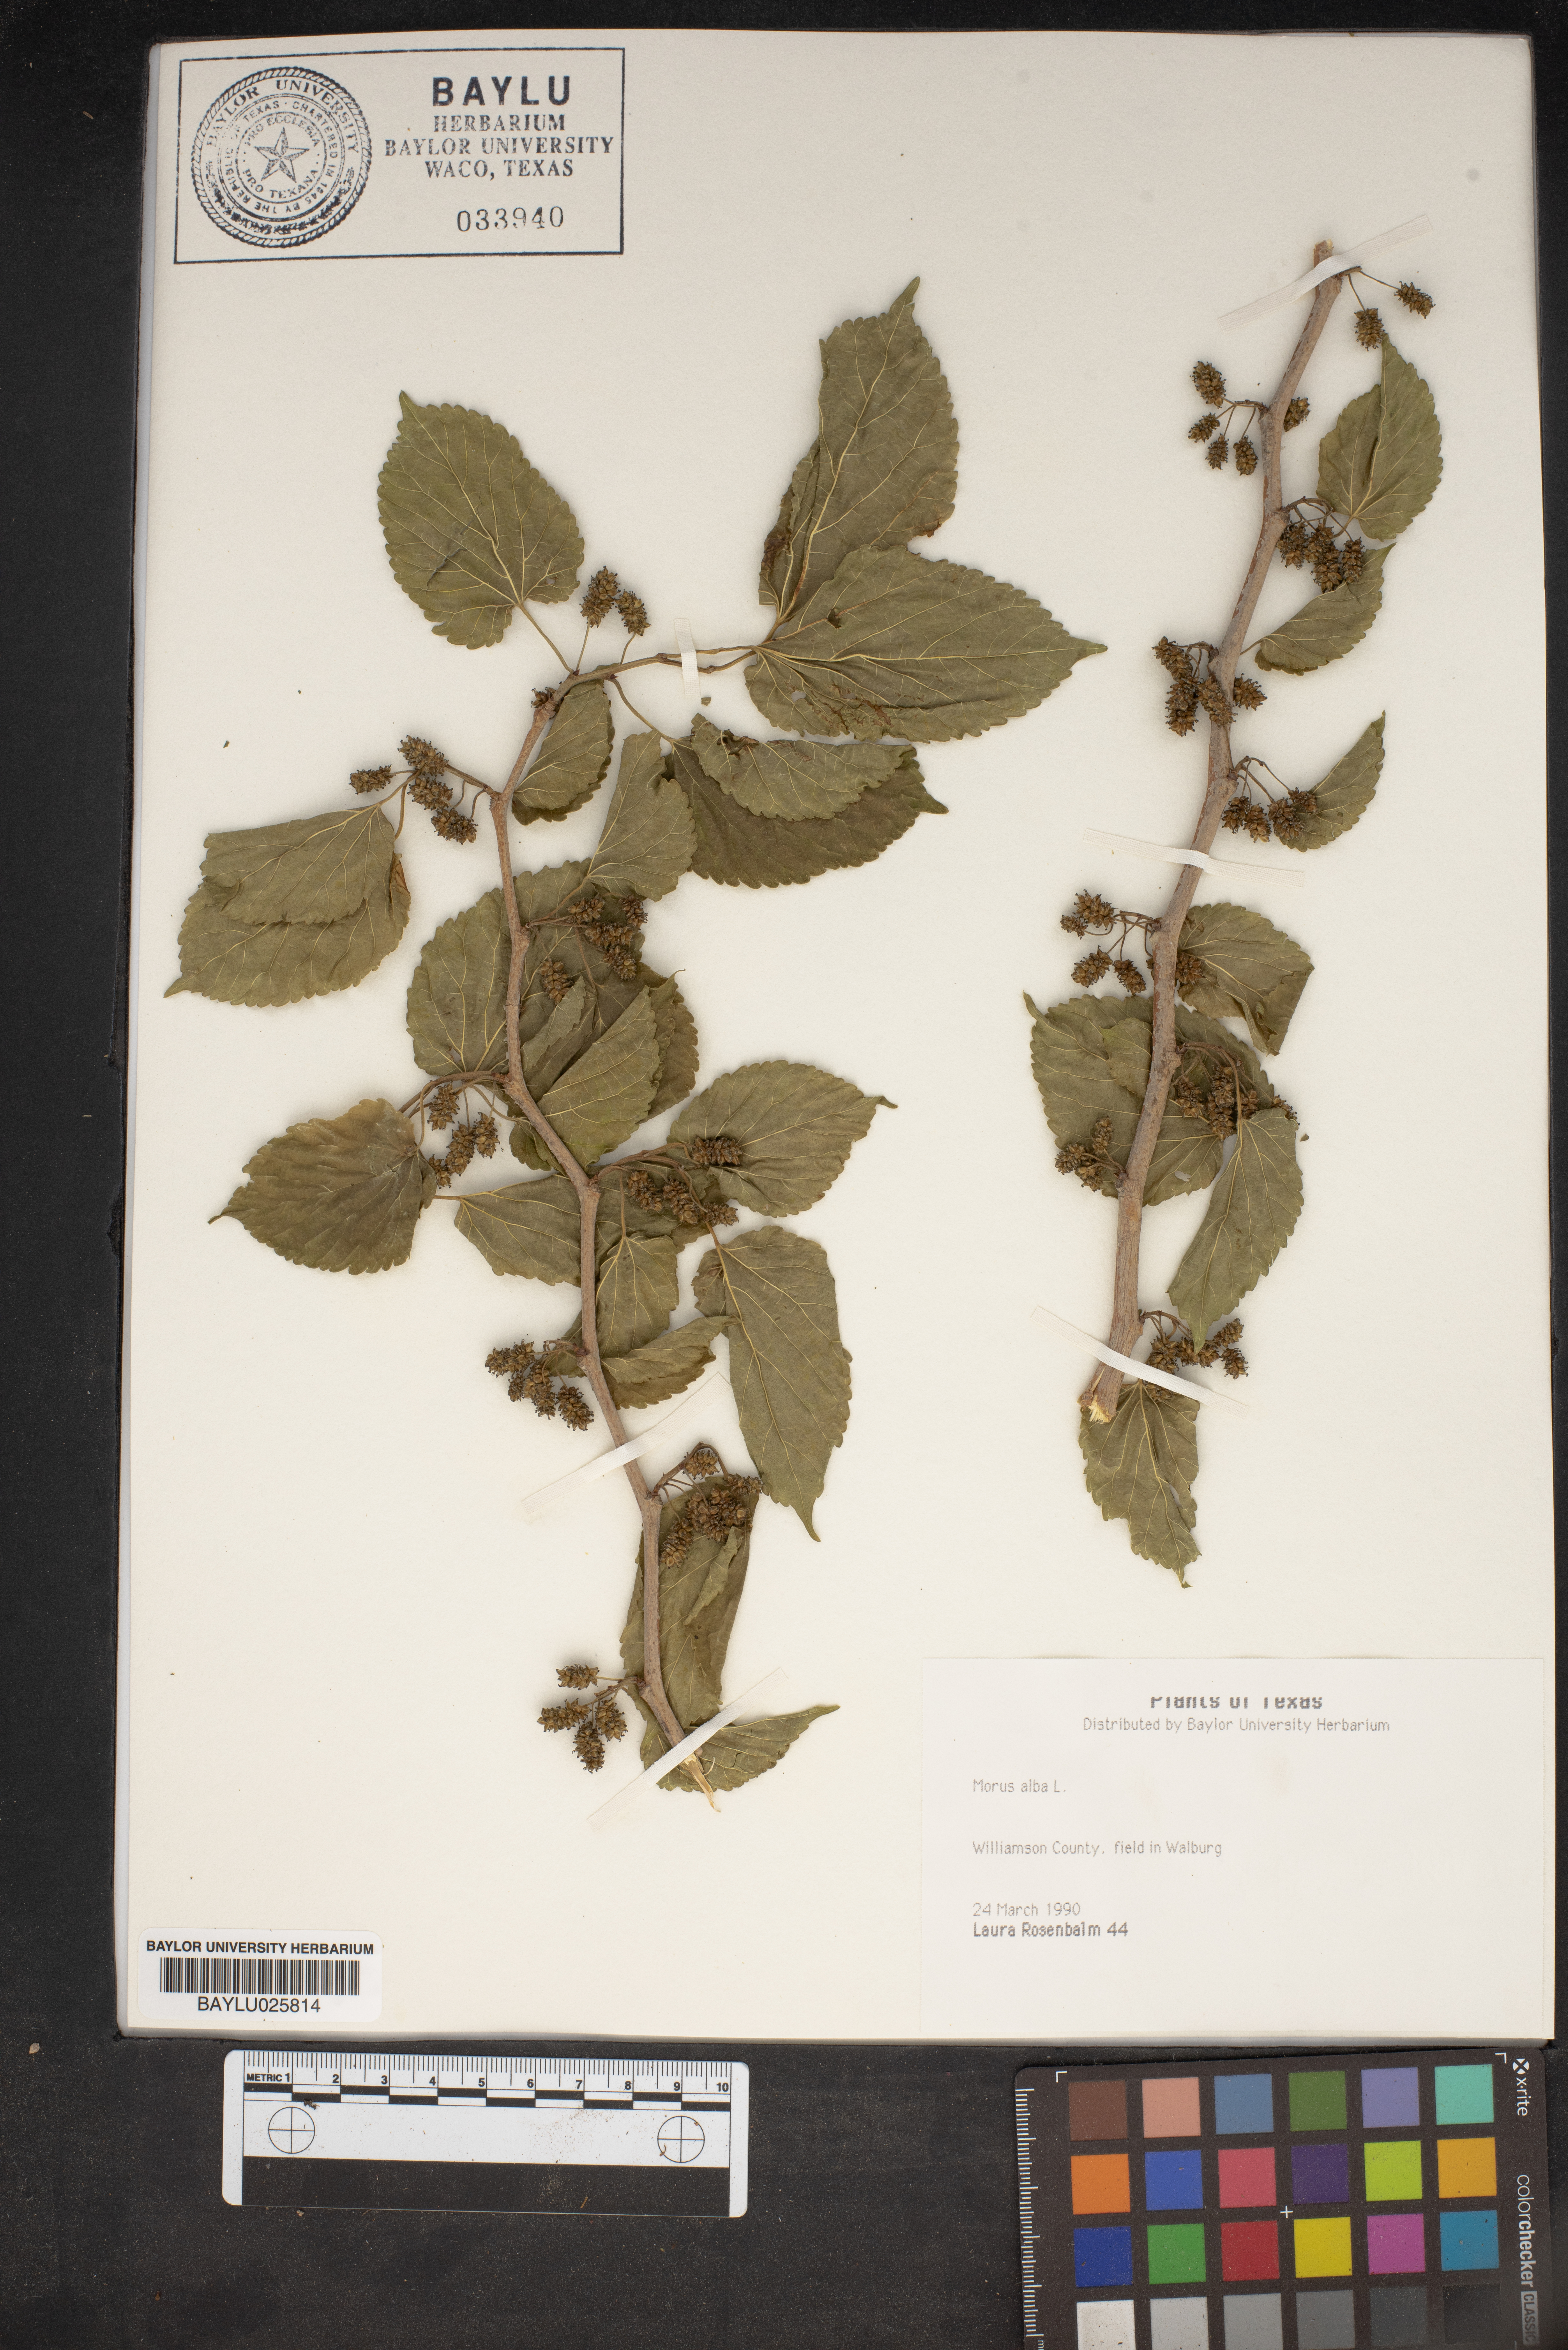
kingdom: Plantae
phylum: Tracheophyta
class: Magnoliopsida
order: Rosales
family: Moraceae
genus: Morus
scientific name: Morus alba
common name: White mulberry
